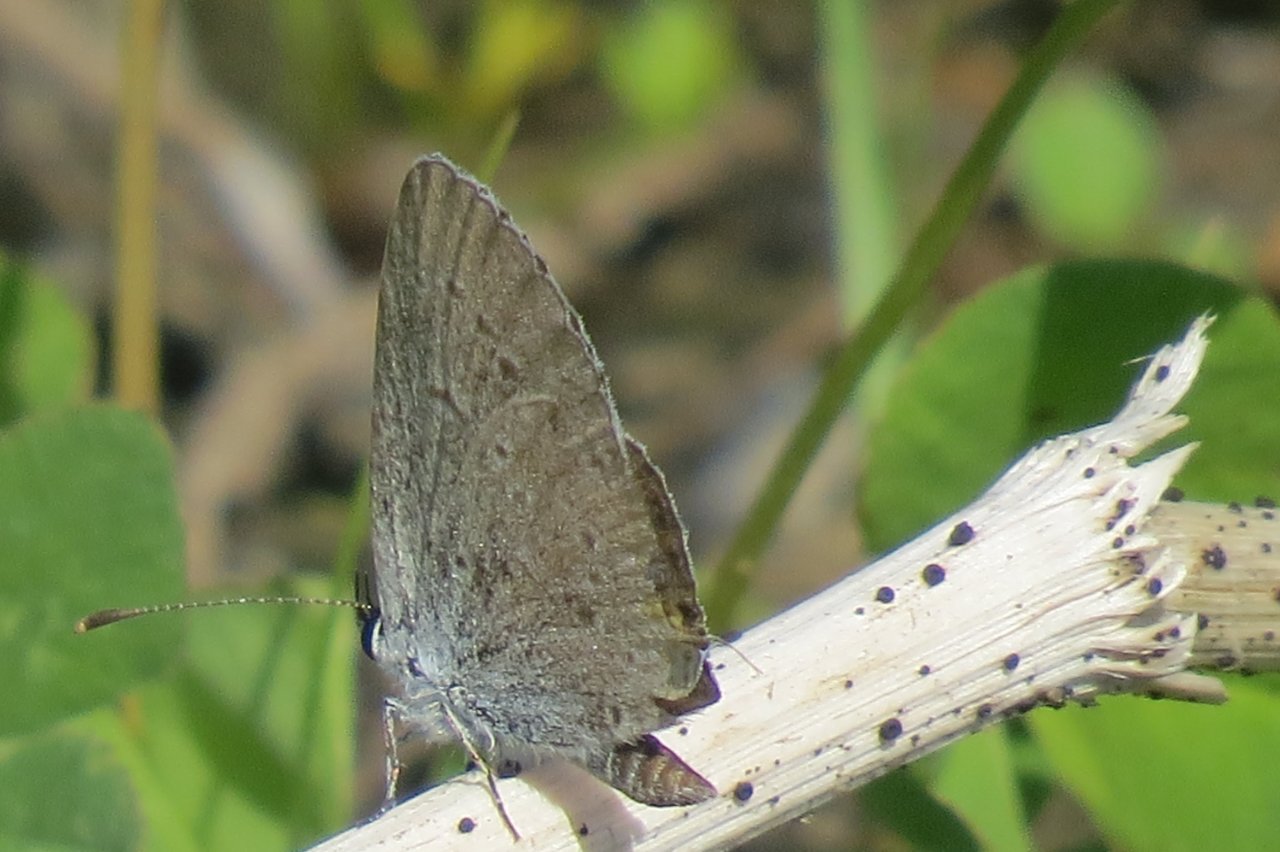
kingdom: Animalia
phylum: Arthropoda
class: Insecta
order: Lepidoptera
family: Lycaenidae
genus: Elkalyce
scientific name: Elkalyce comyntas
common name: Eastern Tailed-Blue
